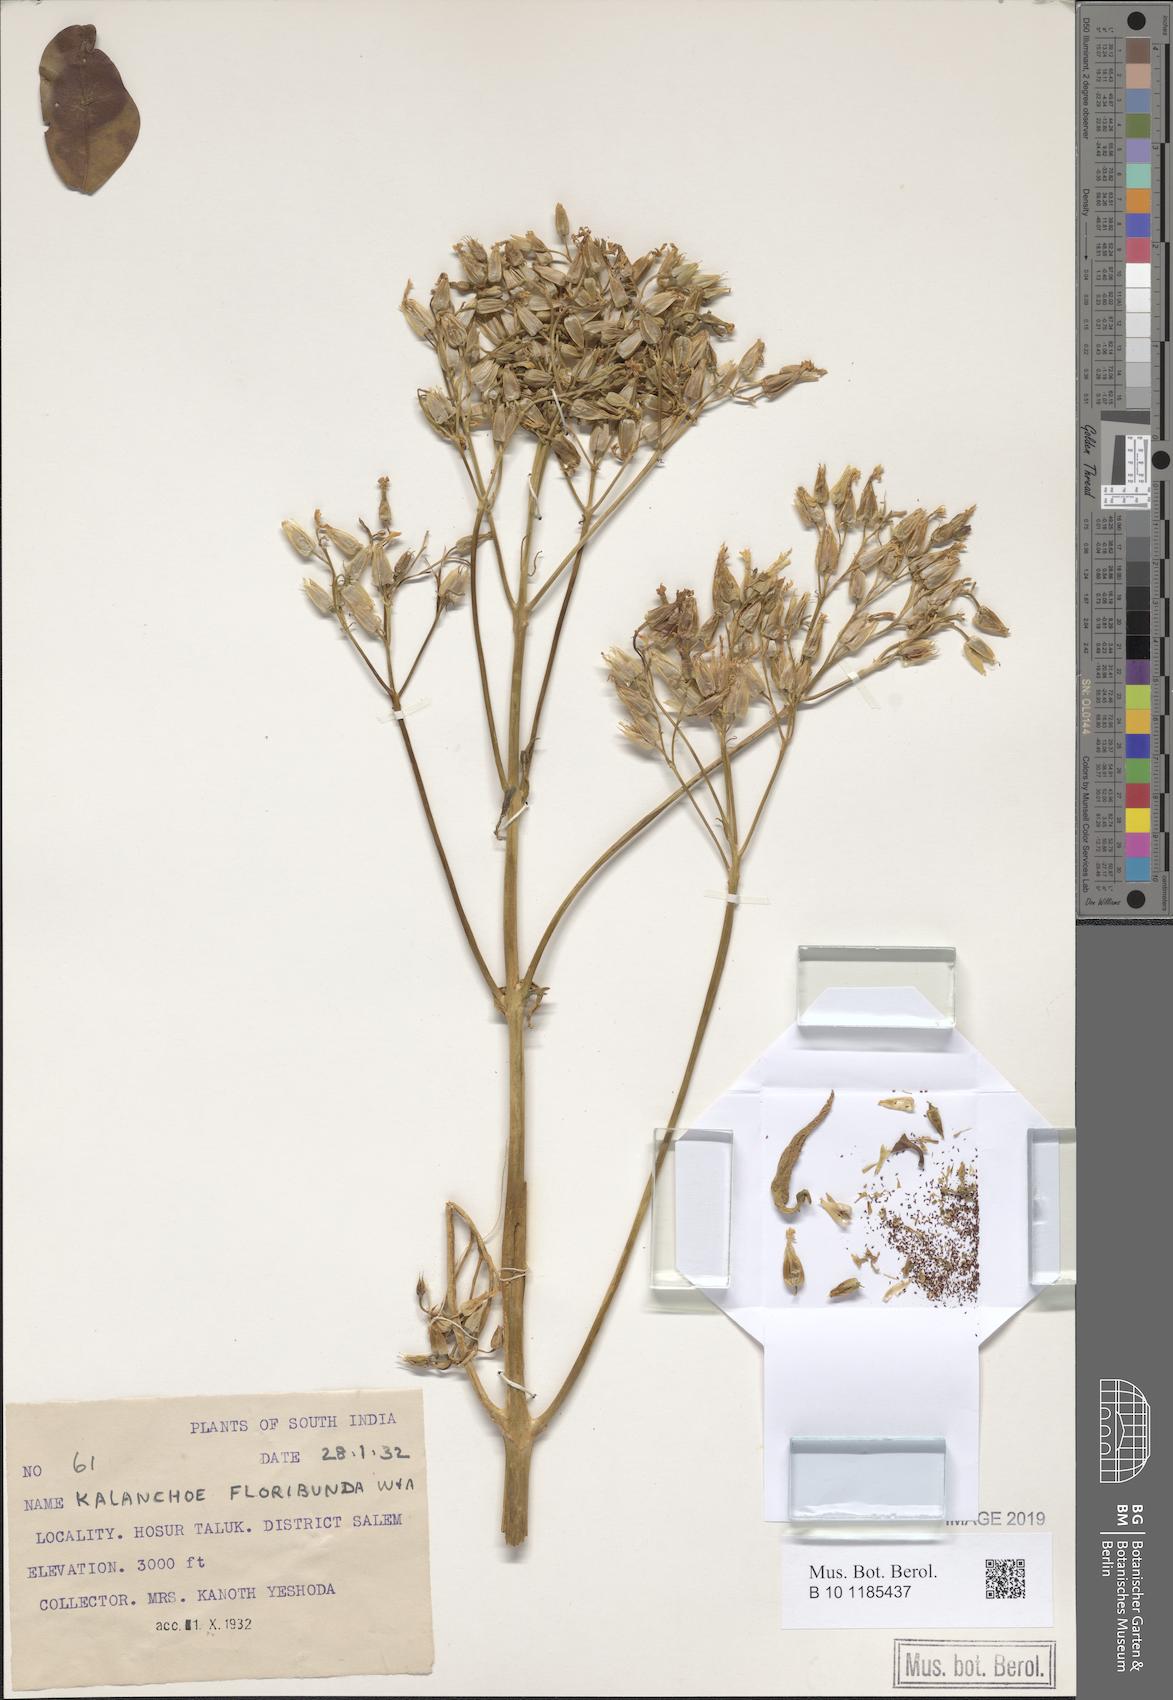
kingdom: Plantae
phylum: Tracheophyta
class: Magnoliopsida
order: Saxifragales
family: Crassulaceae
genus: Kalanchoe
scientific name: Kalanchoe floribunda
